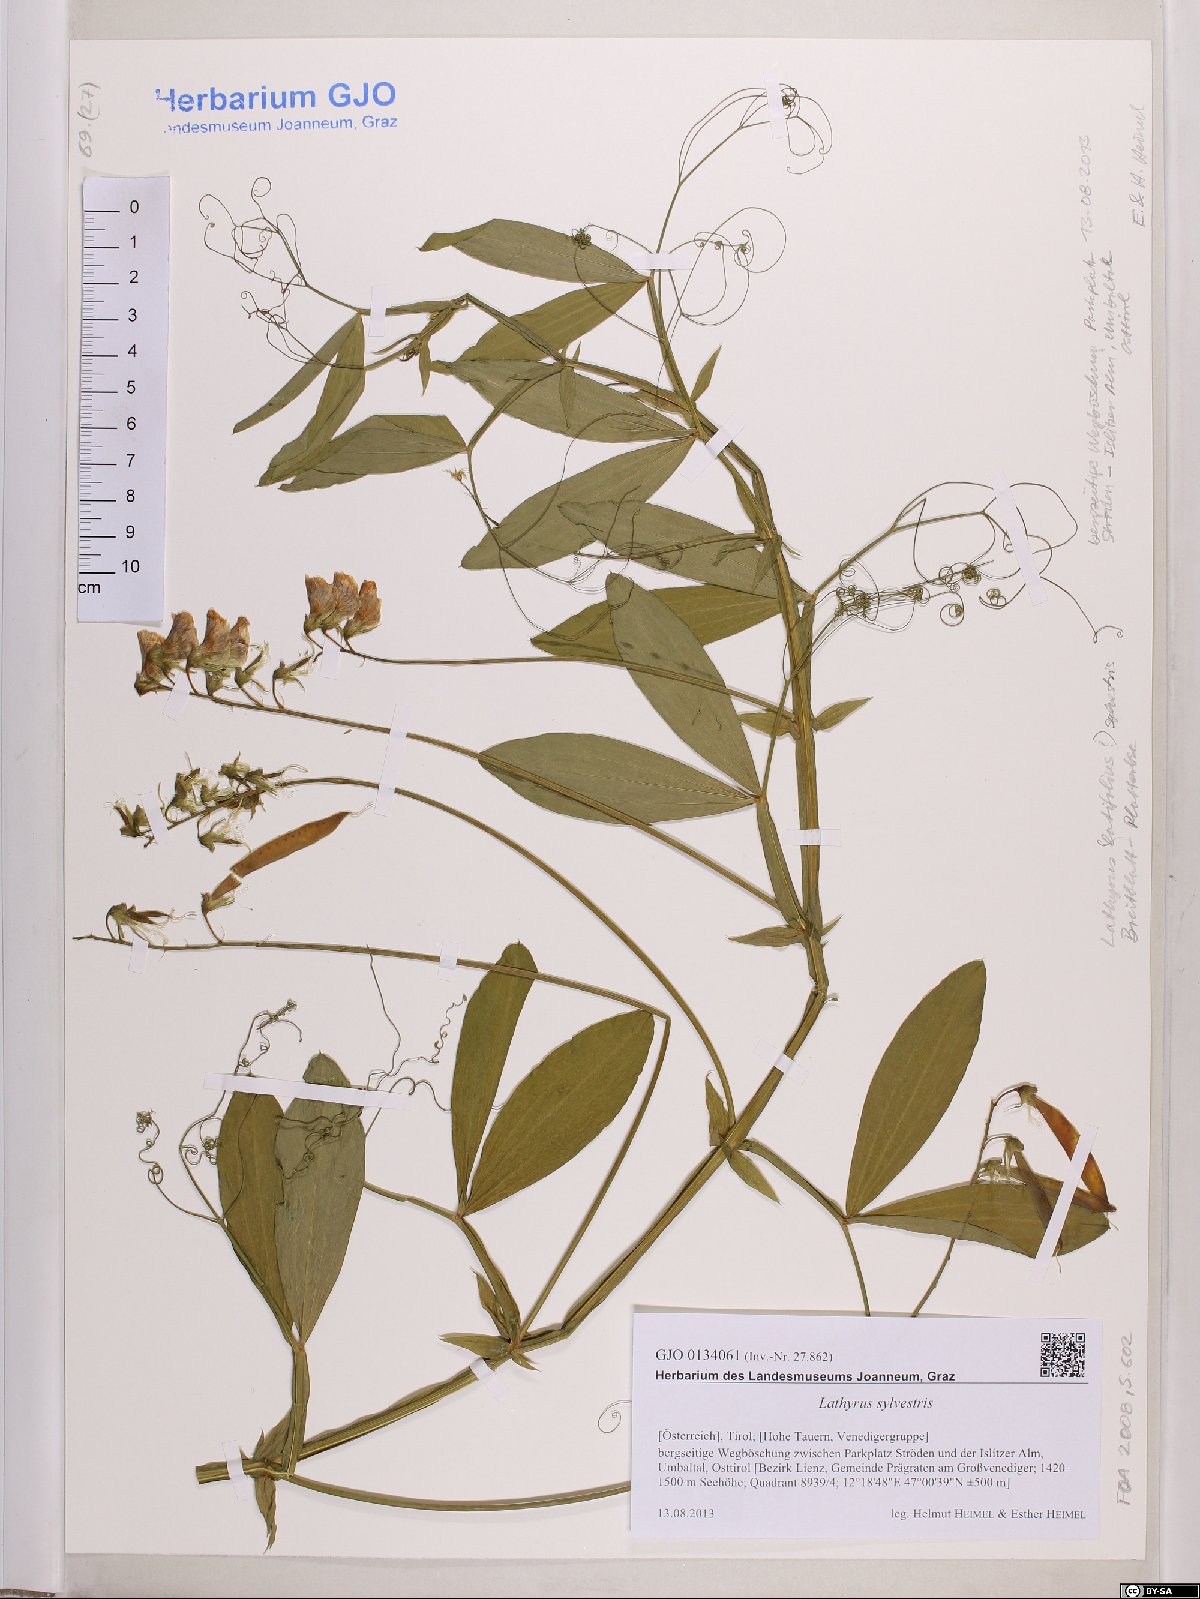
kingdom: Plantae
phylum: Tracheophyta
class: Magnoliopsida
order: Fabales
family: Fabaceae
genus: Lathyrus
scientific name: Lathyrus sylvestris
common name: Flat pea
